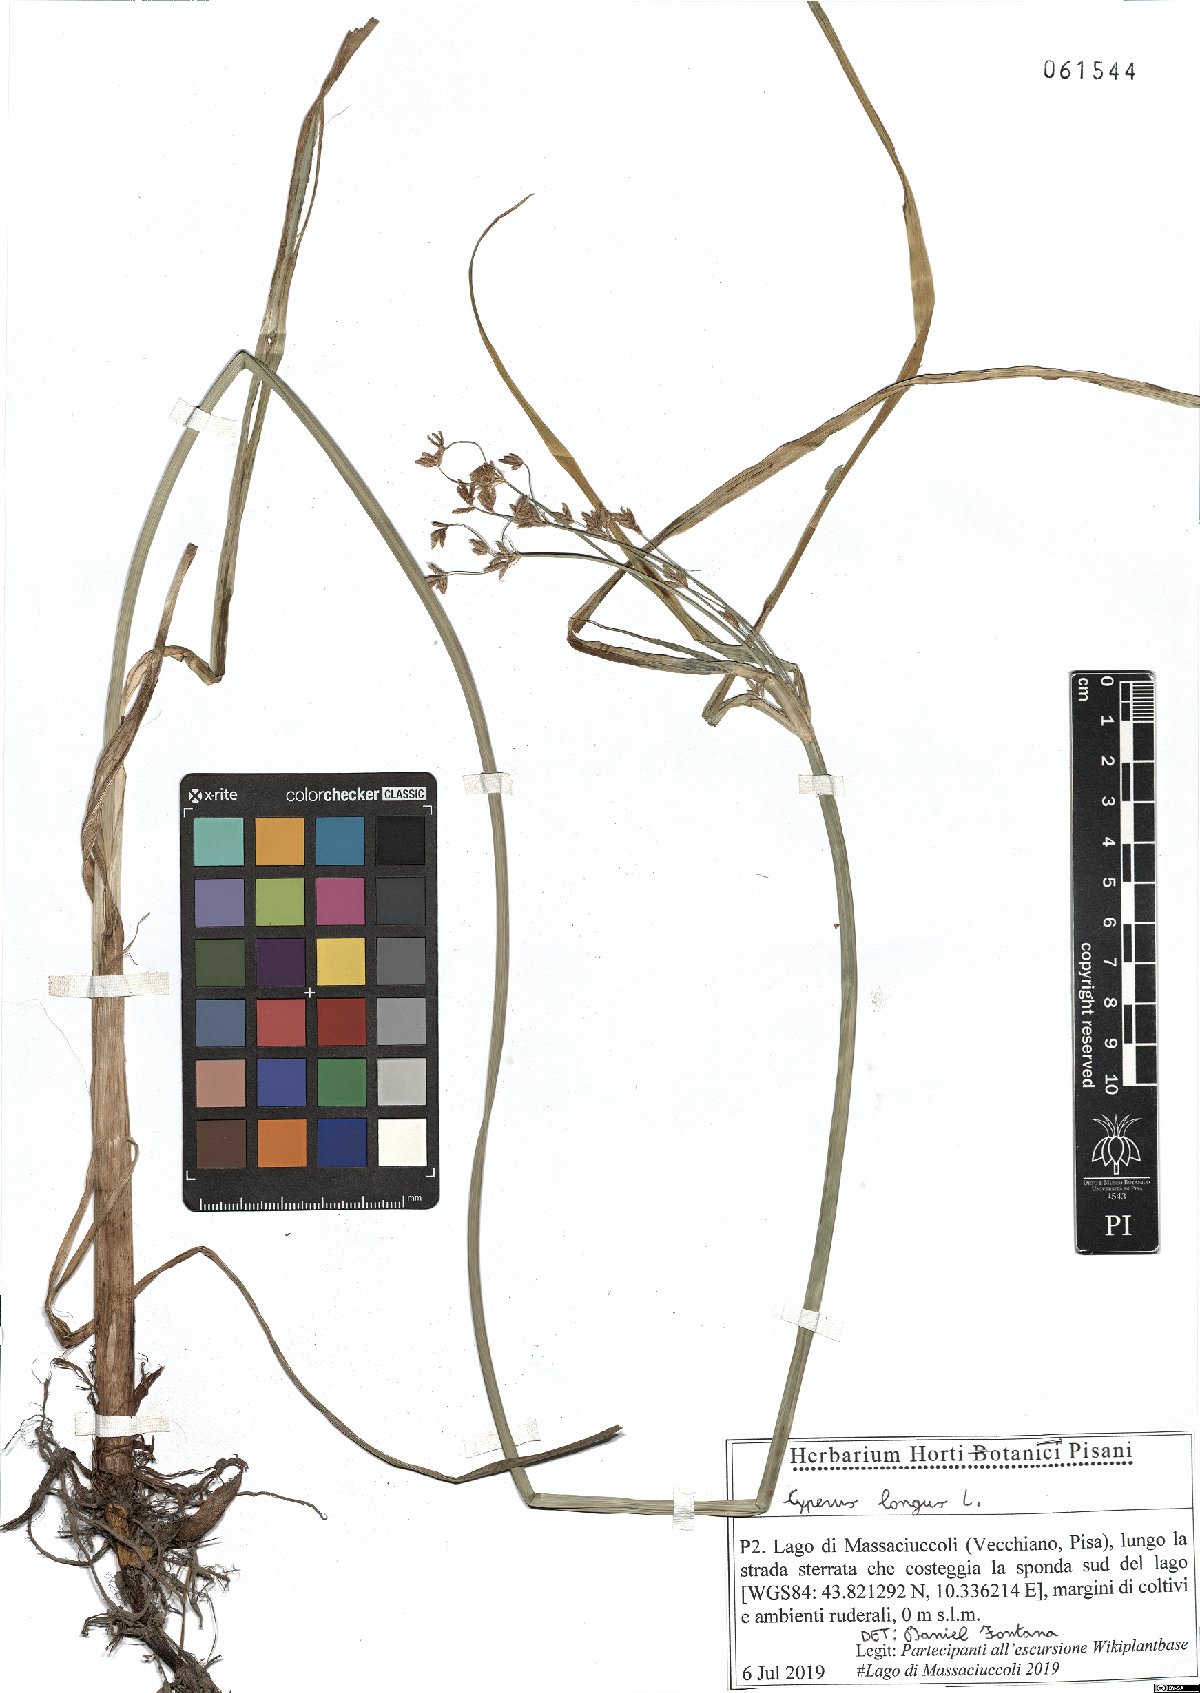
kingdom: Plantae
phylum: Tracheophyta
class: Liliopsida
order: Poales
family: Cyperaceae
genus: Cyperus
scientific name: Cyperus longus
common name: Galingale
